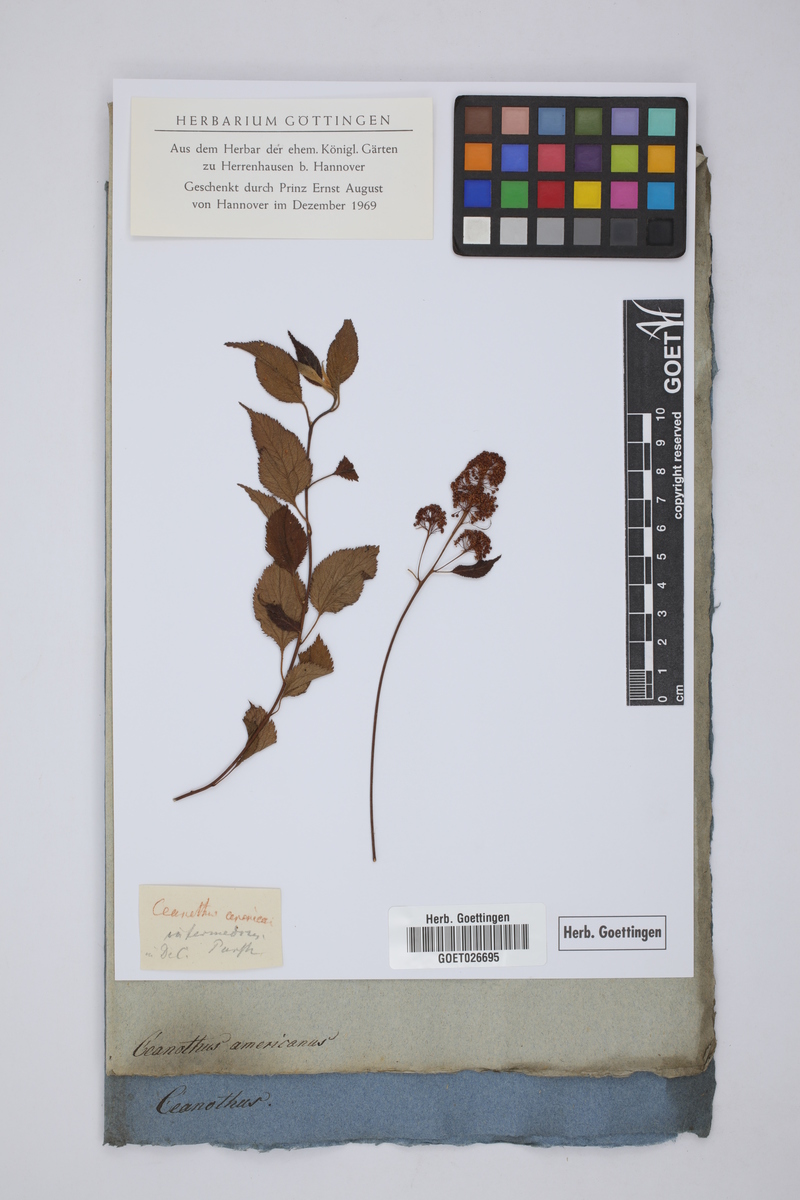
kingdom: Plantae
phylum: Tracheophyta
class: Magnoliopsida
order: Rosales
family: Rhamnaceae
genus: Ceanothus
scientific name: Ceanothus americanus
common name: Redroot
